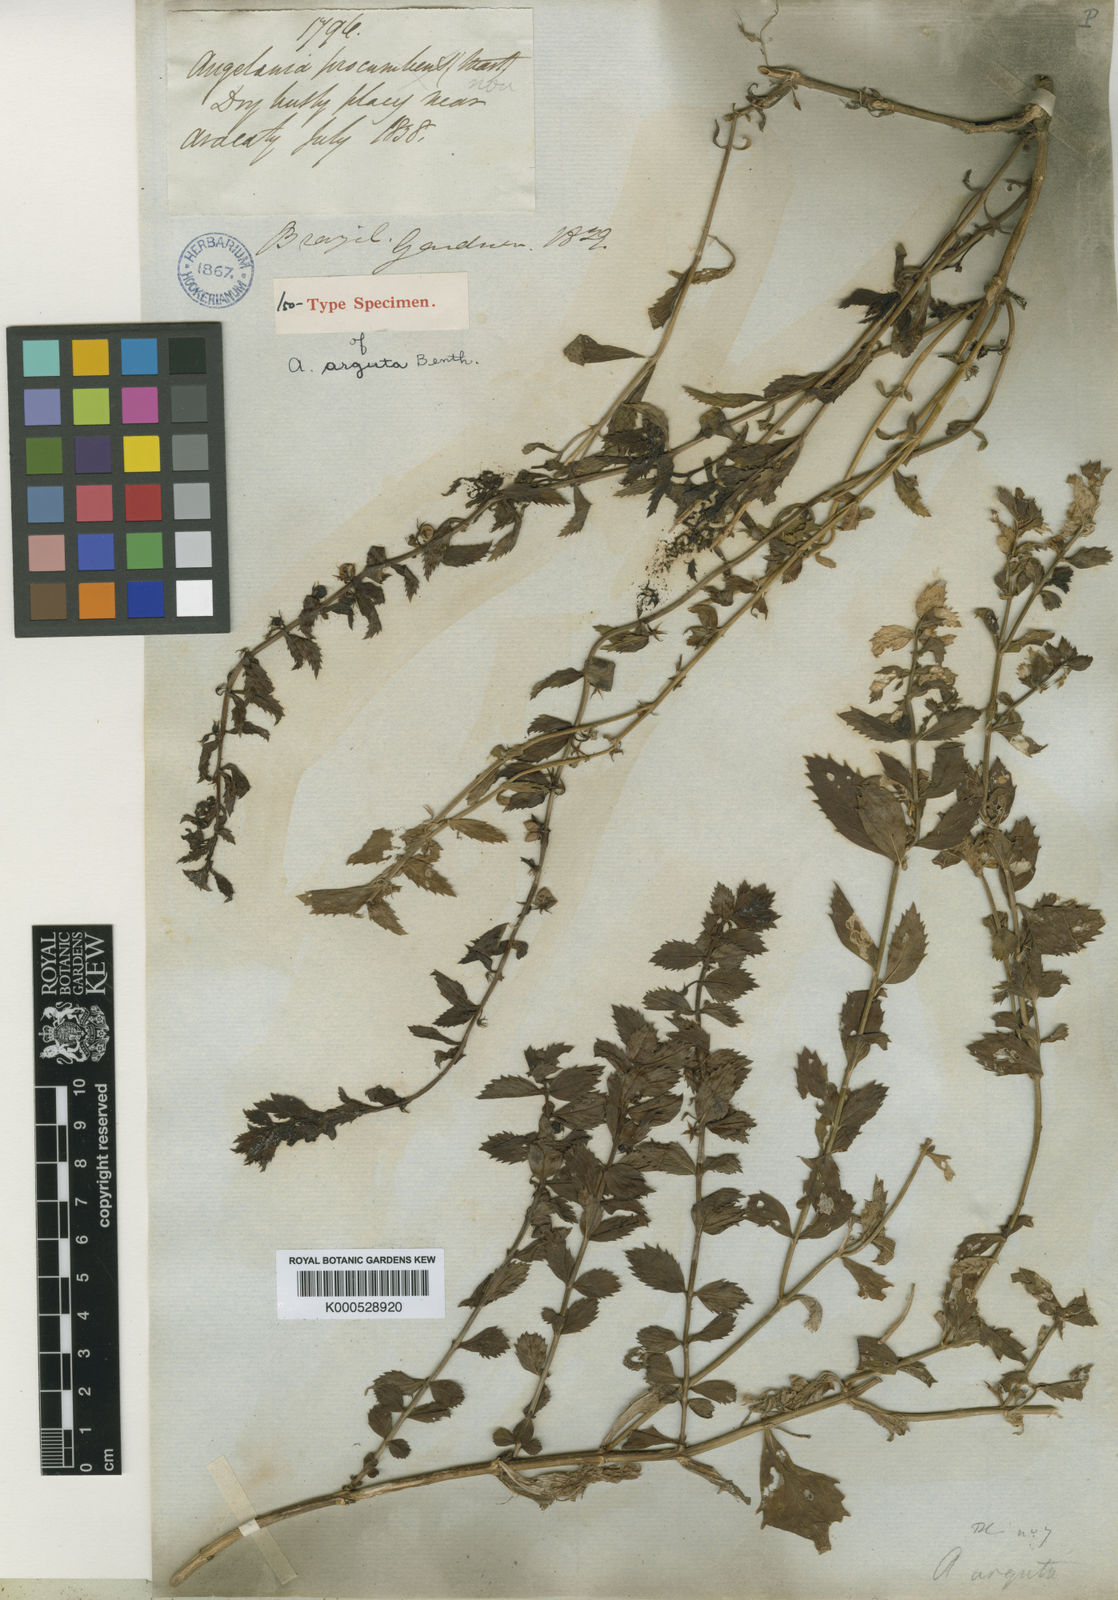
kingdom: Plantae
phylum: Tracheophyta
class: Magnoliopsida
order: Lamiales
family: Plantaginaceae
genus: Angelonia
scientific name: Angelonia arguta
